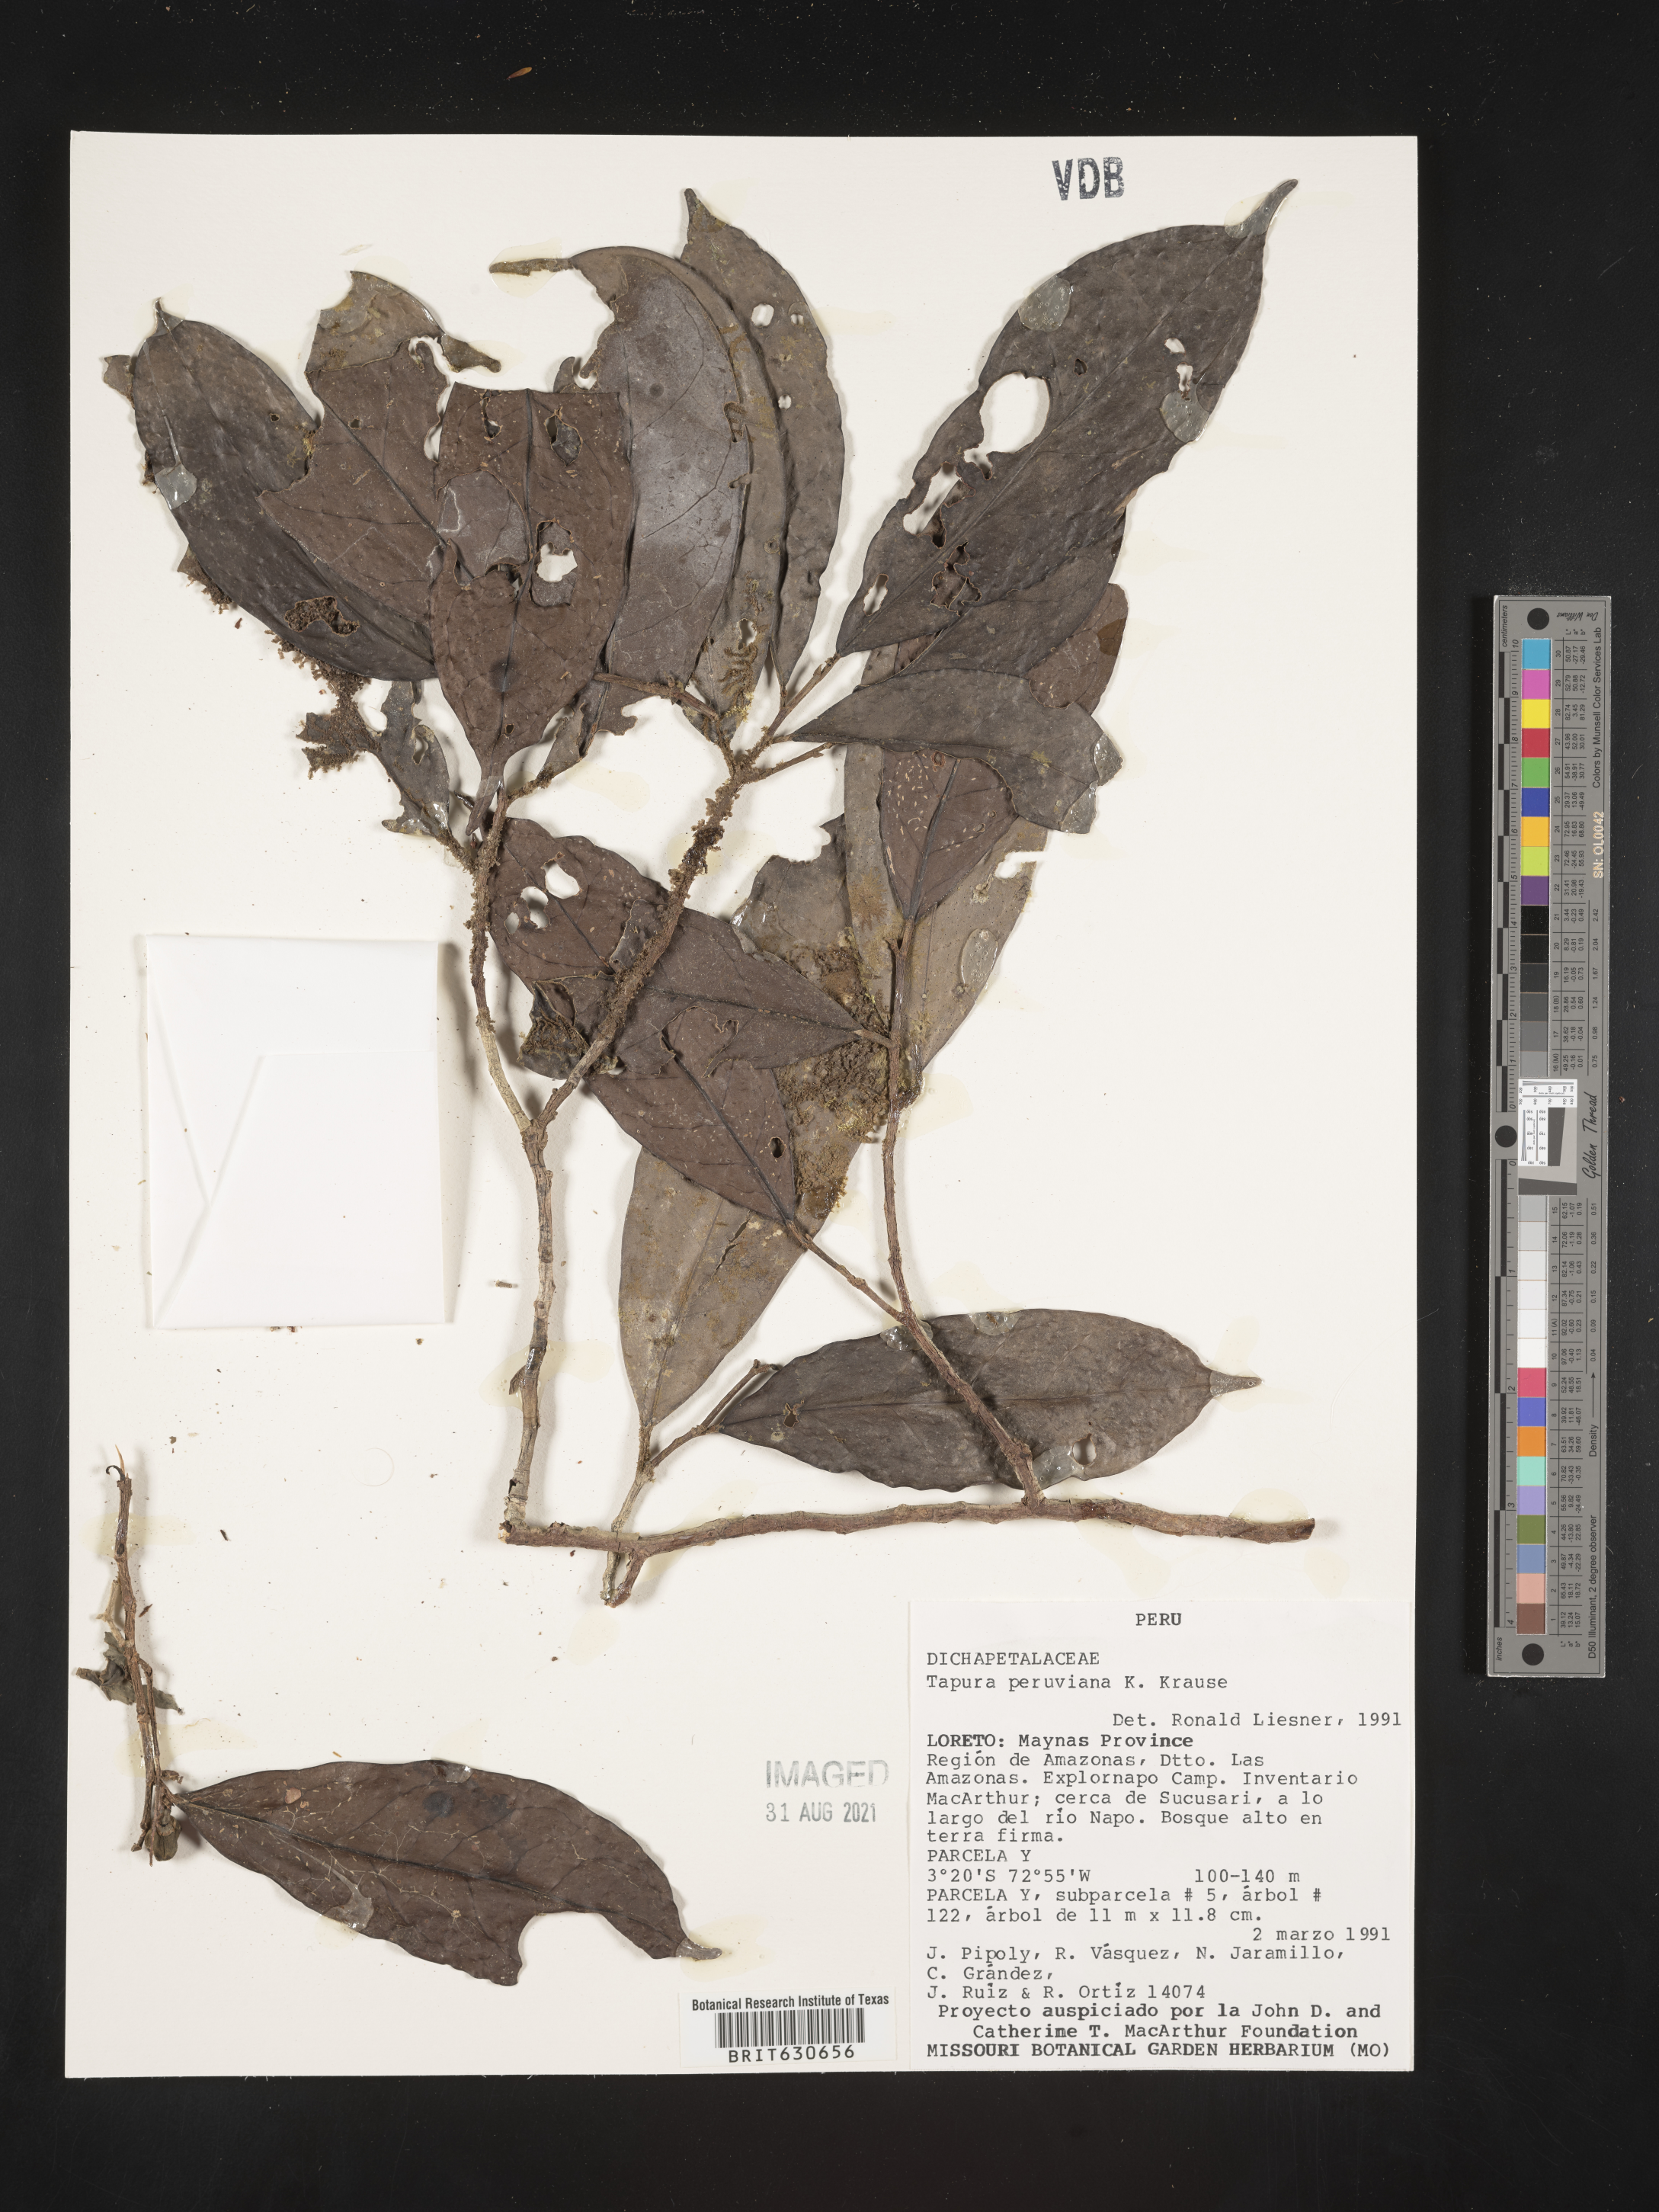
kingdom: Plantae
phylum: Tracheophyta
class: Magnoliopsida
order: Malpighiales
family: Dichapetalaceae
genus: Tapura
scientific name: Tapura
